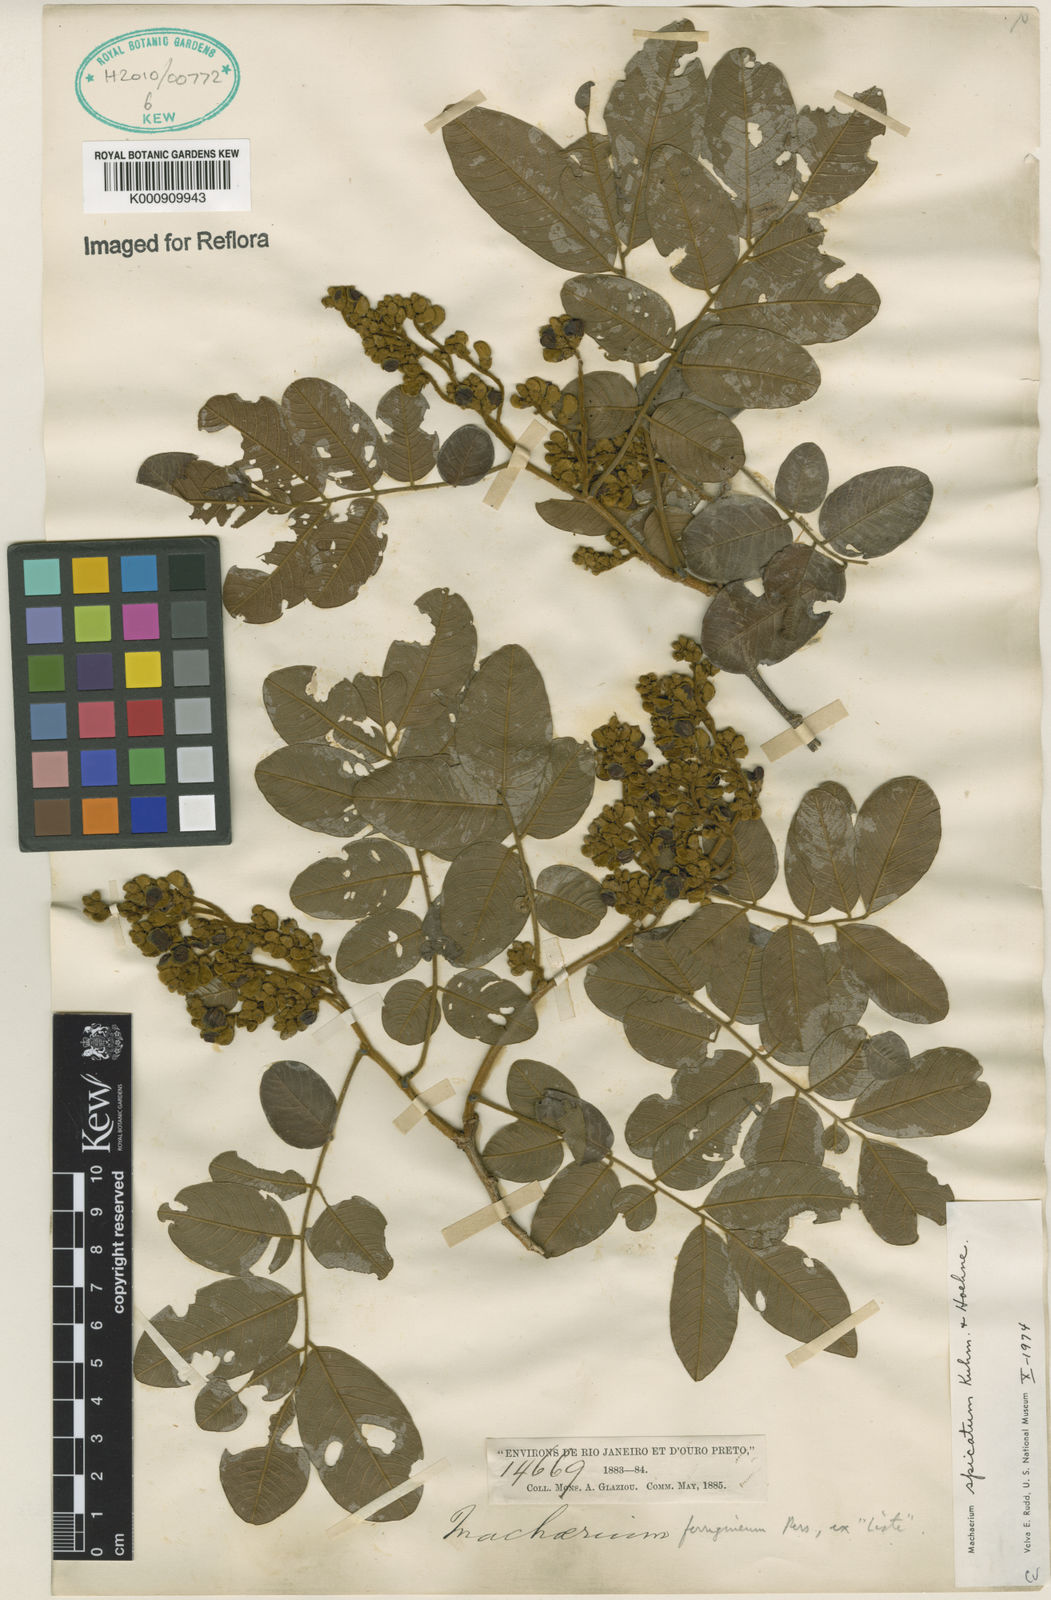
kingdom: Plantae
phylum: Tracheophyta
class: Magnoliopsida
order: Fabales
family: Fabaceae
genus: Machaerium
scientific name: Machaerium spicatum
